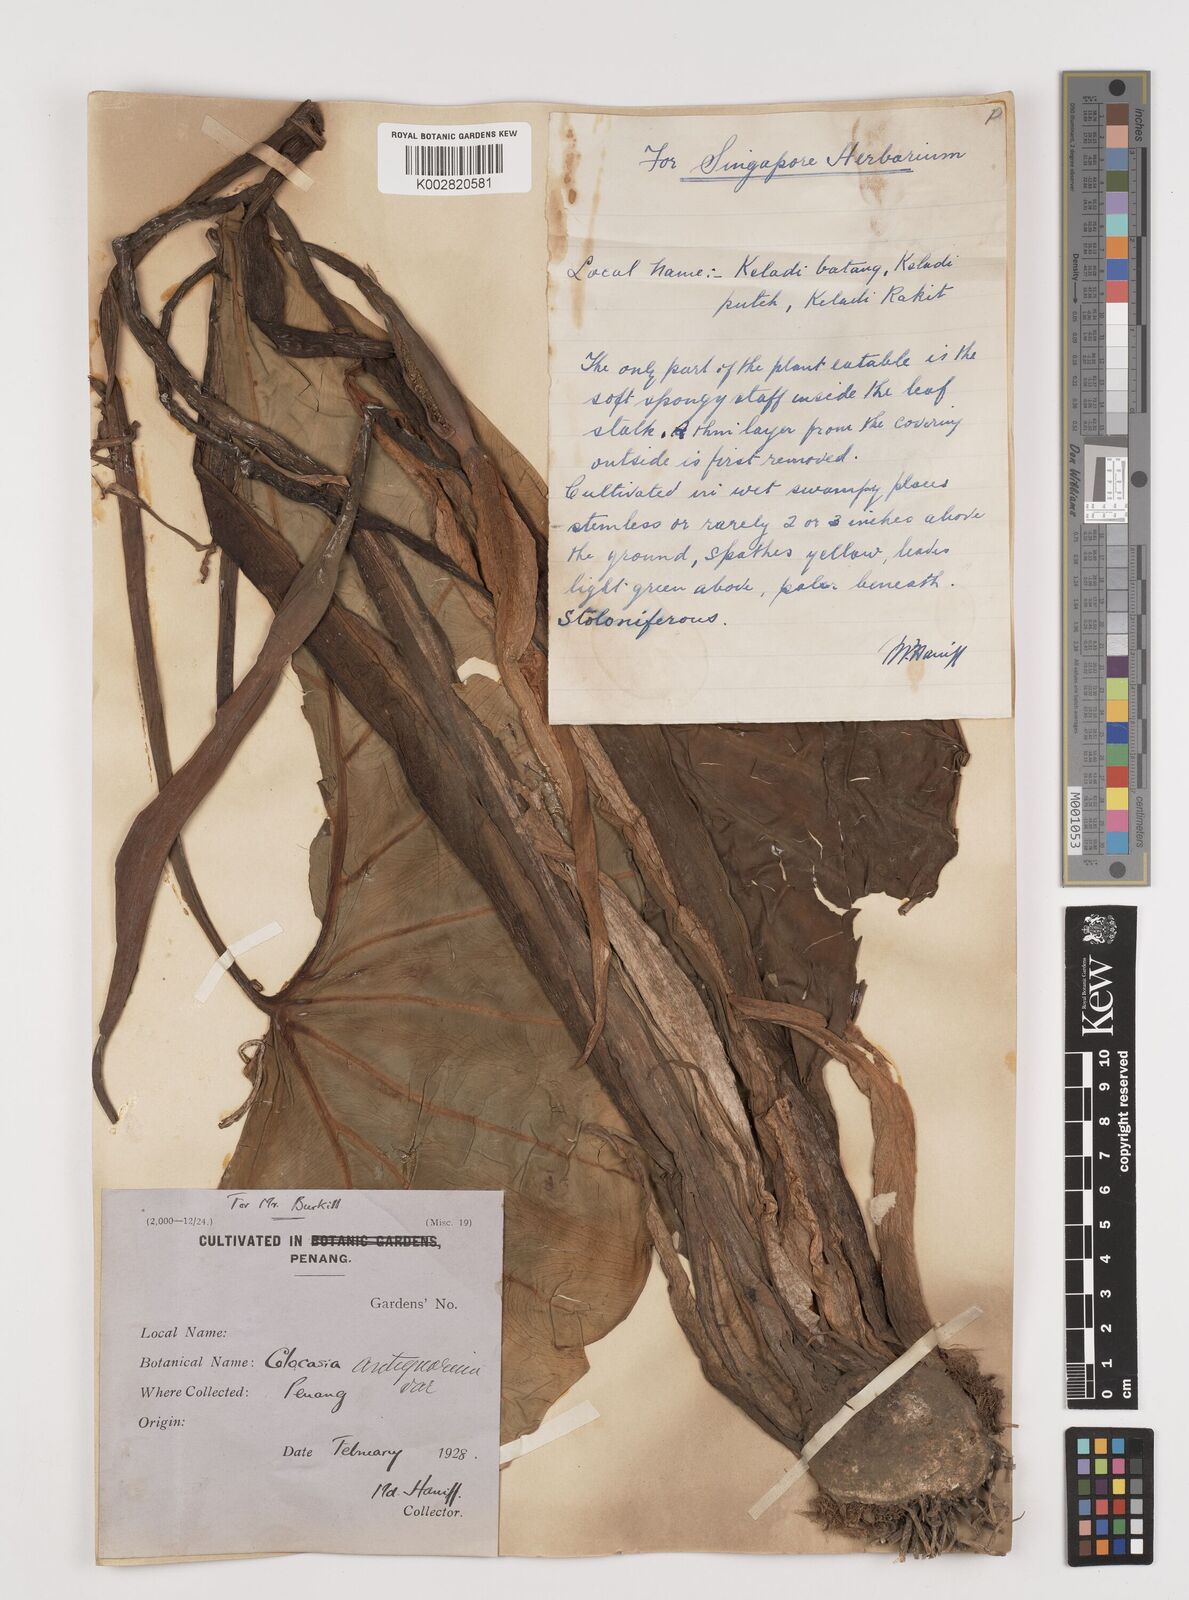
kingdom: Plantae
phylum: Tracheophyta
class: Liliopsida
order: Alismatales
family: Araceae
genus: Colocasia
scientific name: Colocasia esculenta
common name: Taro
